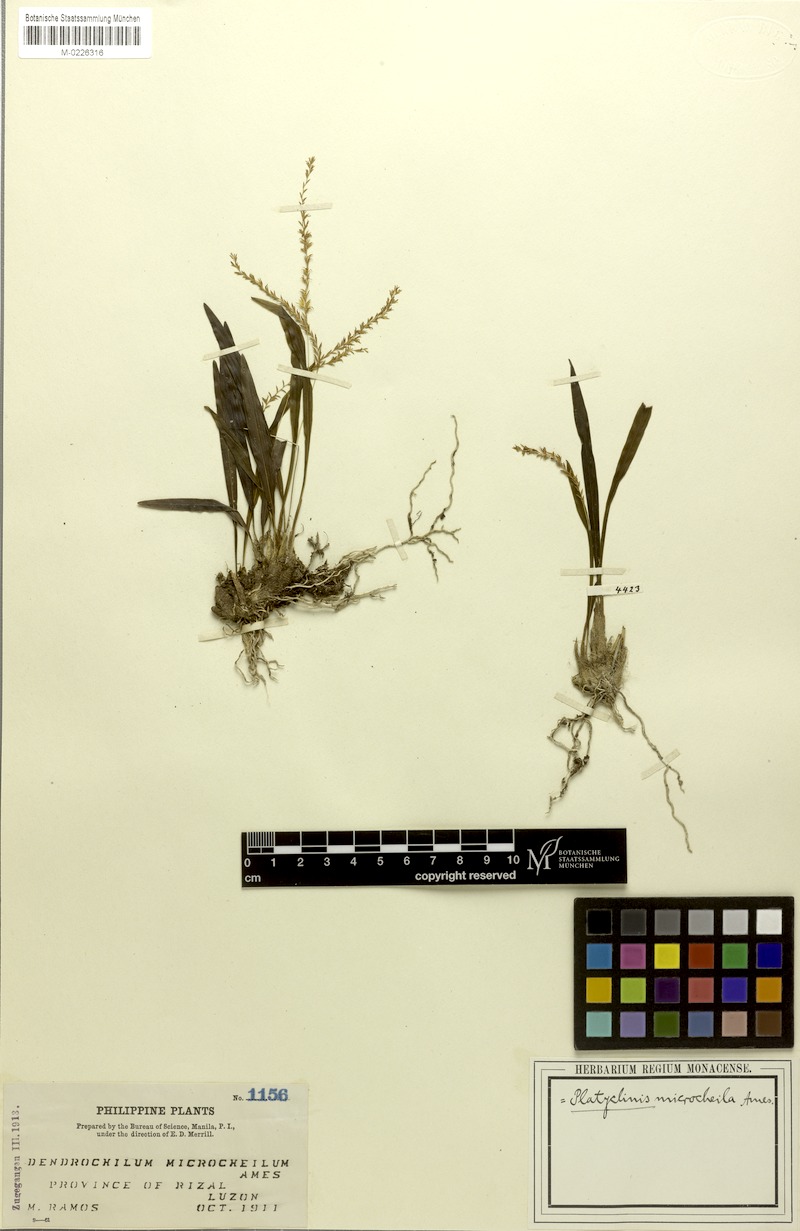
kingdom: Plantae
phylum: Tracheophyta
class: Liliopsida
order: Asparagales
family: Orchidaceae
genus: Coelogyne
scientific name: Coelogyne microchila
